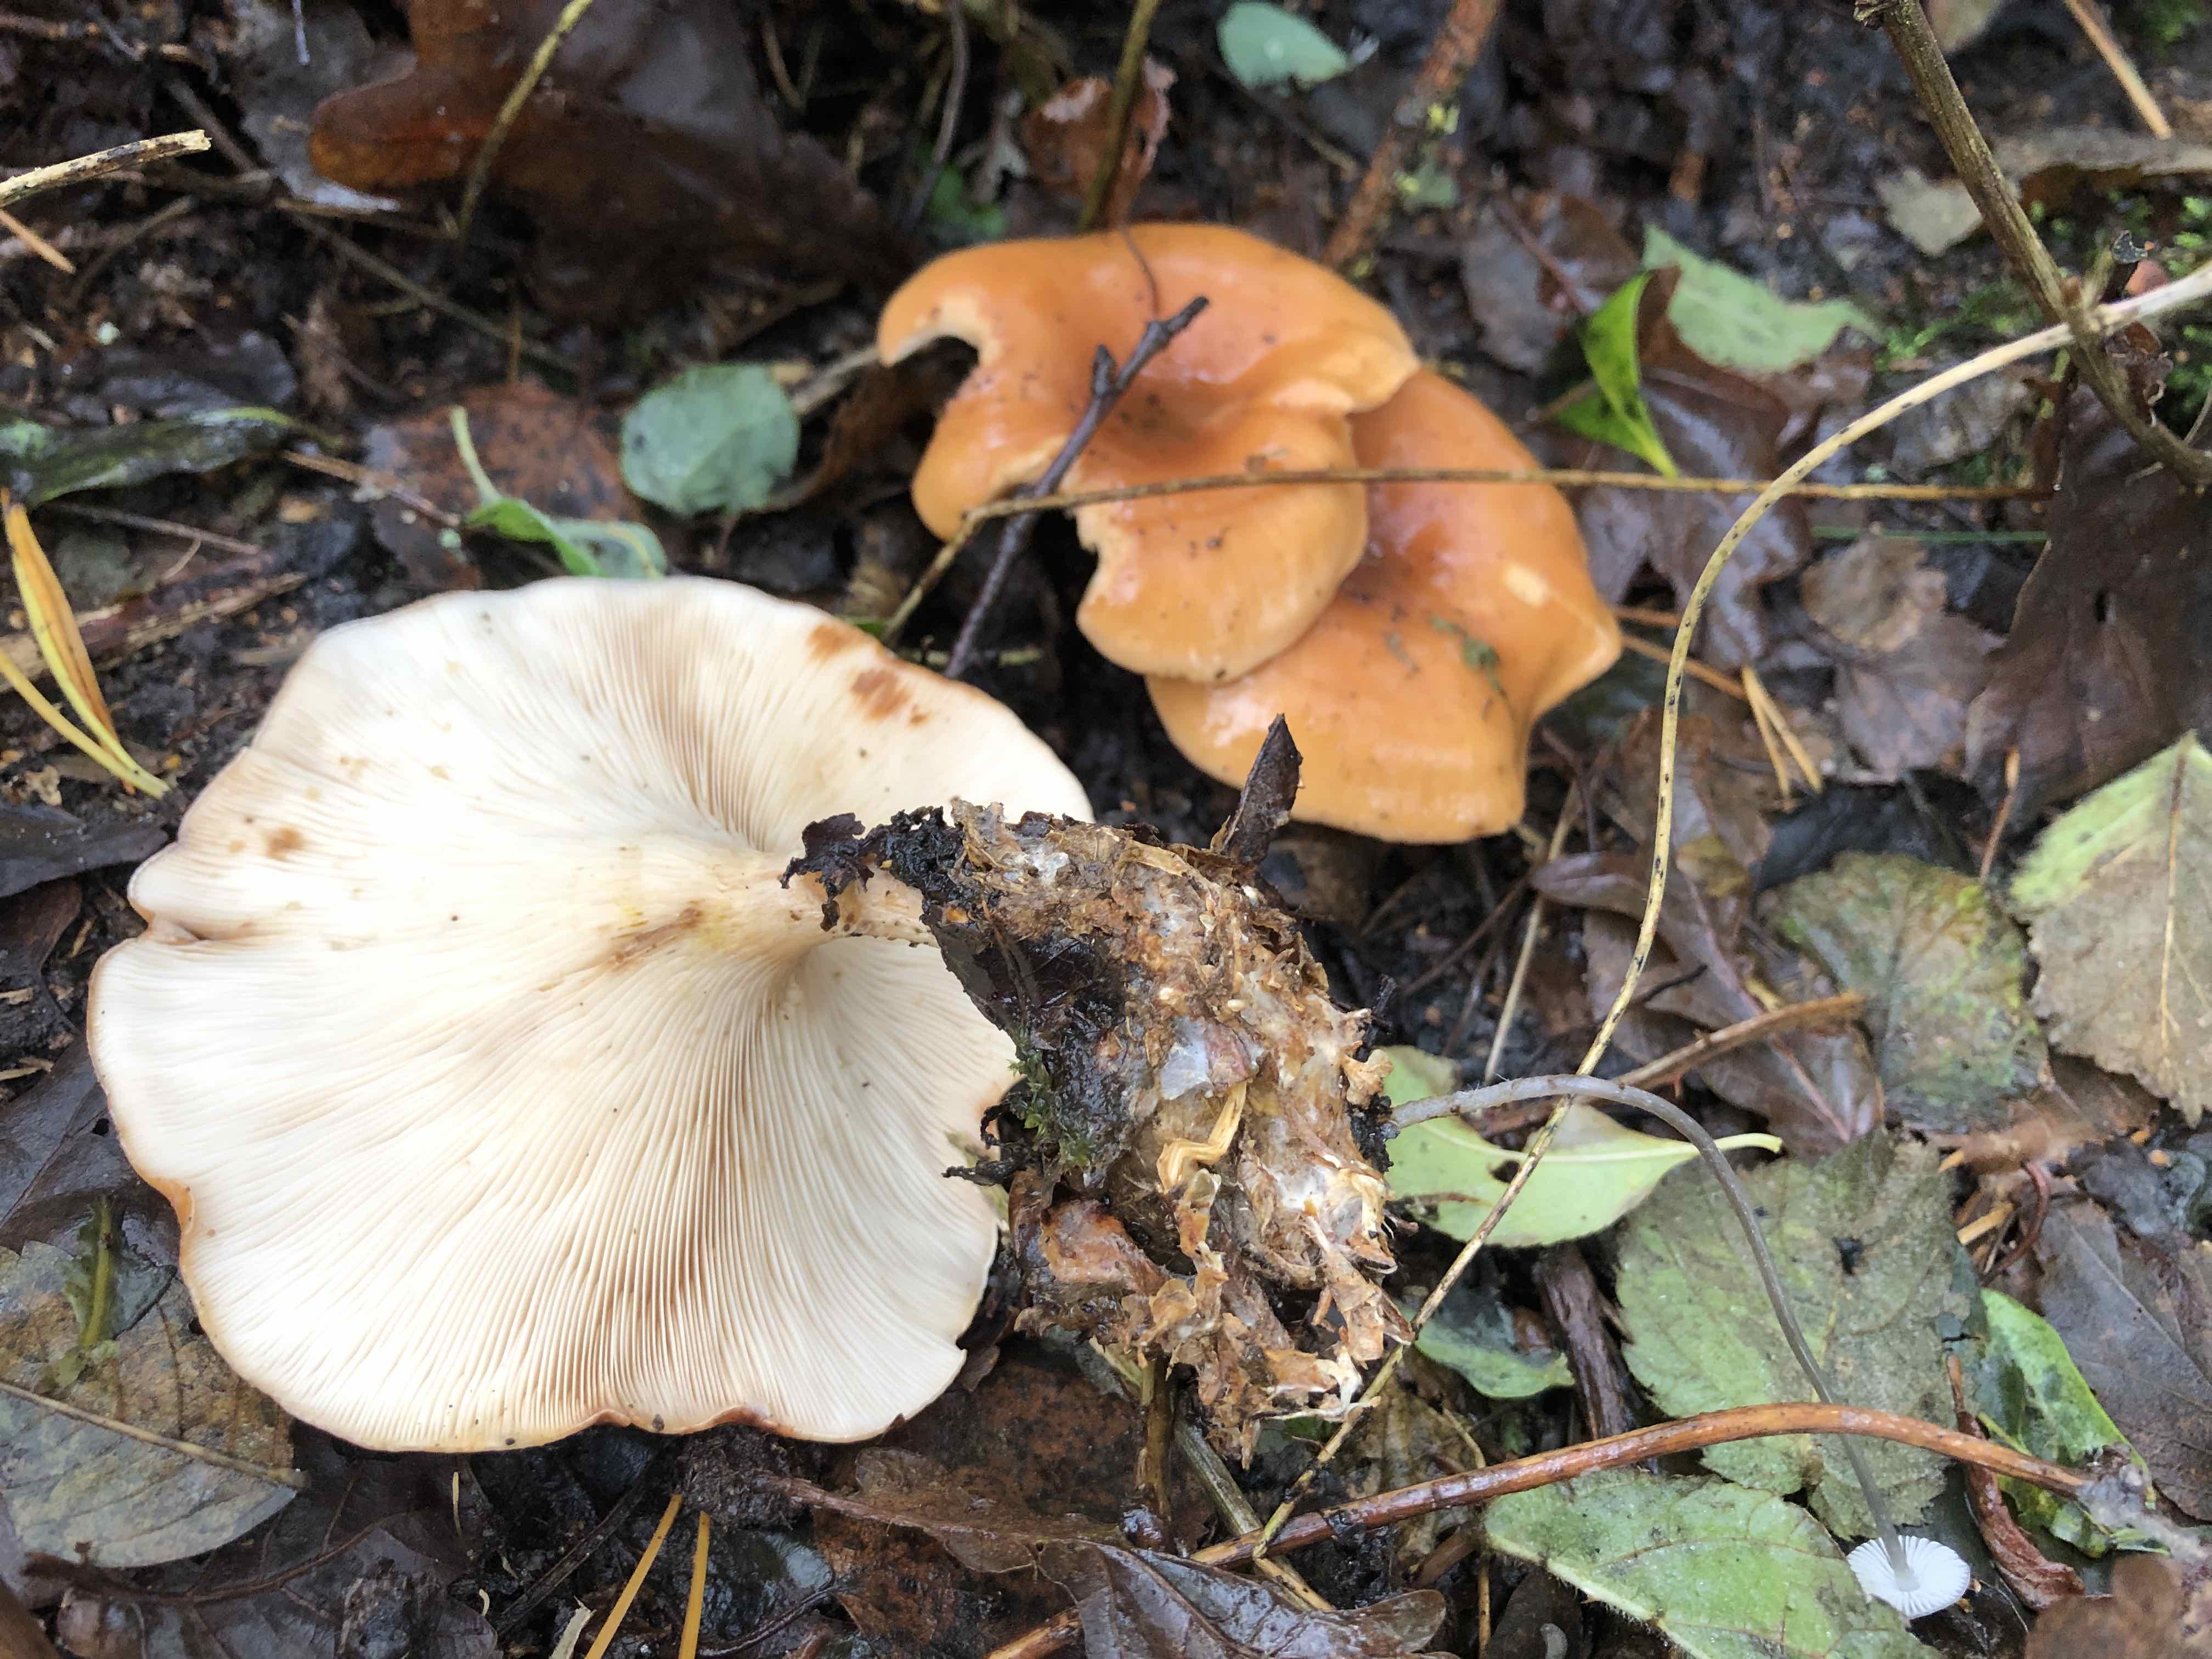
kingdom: Fungi
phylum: Basidiomycota
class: Agaricomycetes
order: Agaricales
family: Tricholomataceae
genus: Paralepista
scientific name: Paralepista flaccida
